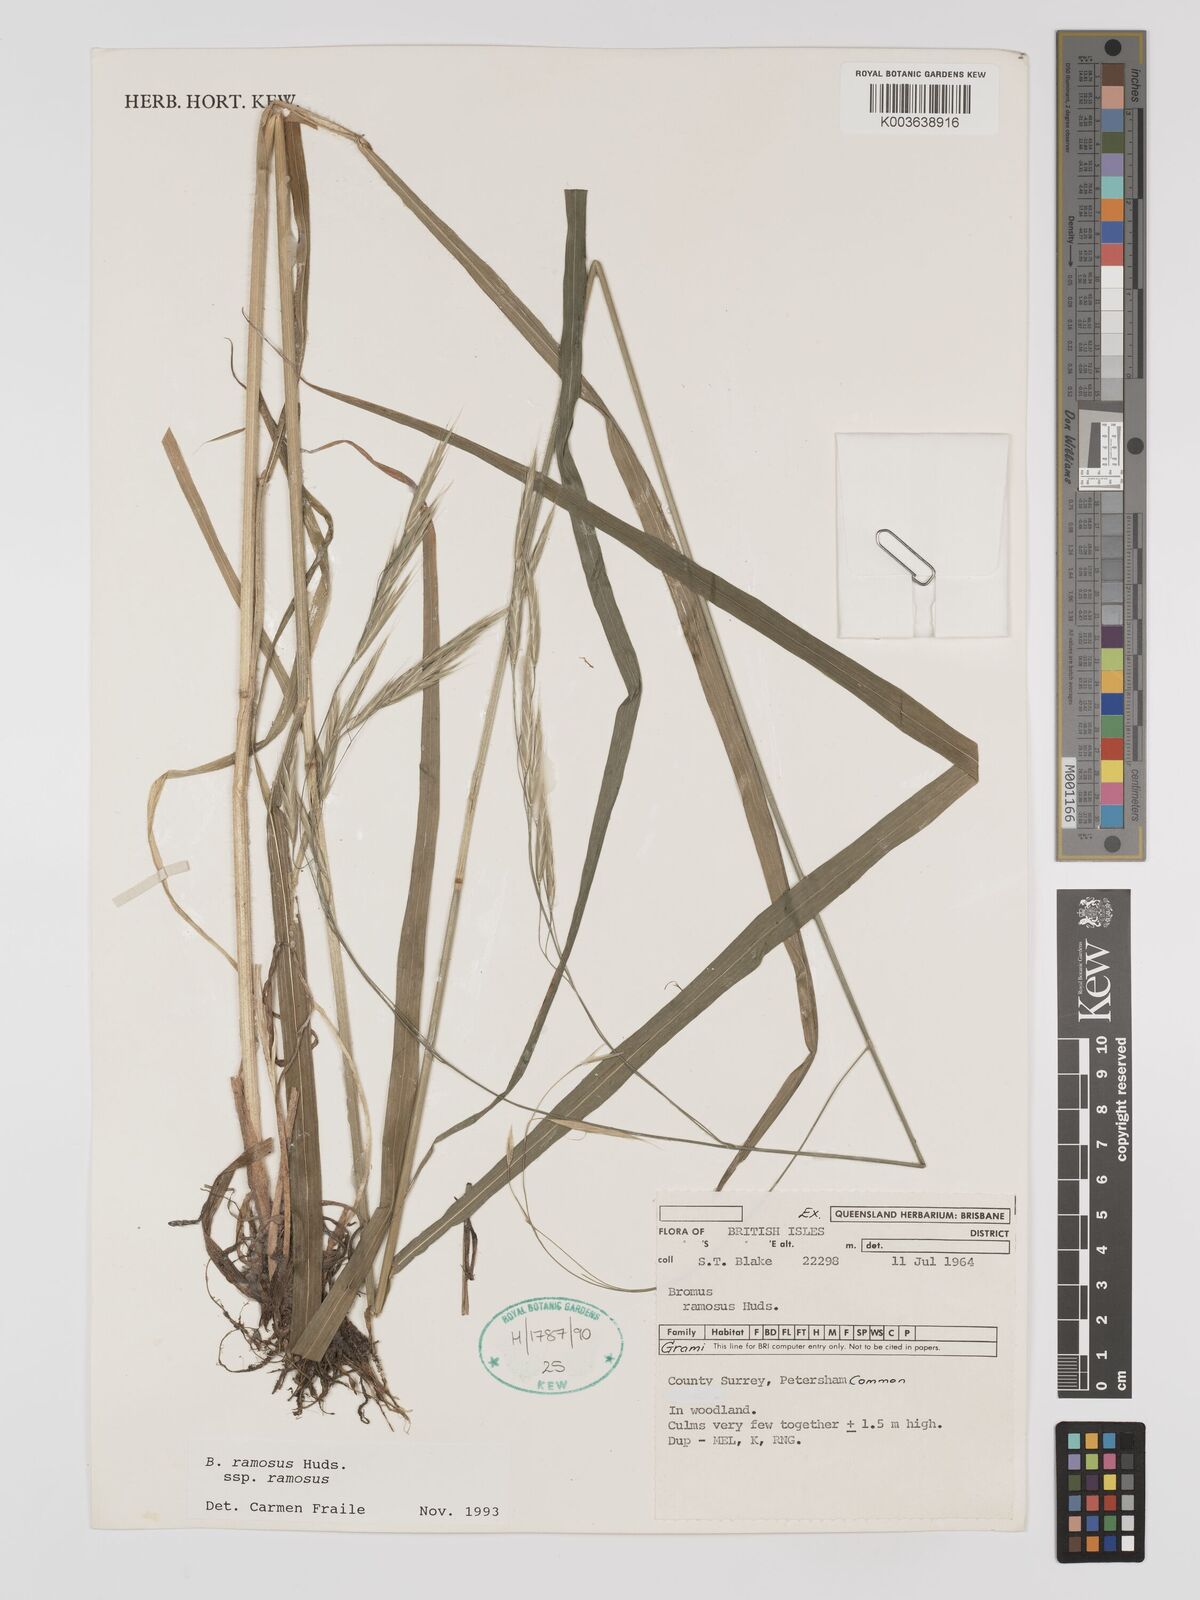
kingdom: Plantae
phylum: Tracheophyta
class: Liliopsida
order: Poales
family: Poaceae
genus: Bromus
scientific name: Bromus ramosus
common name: Hairy brome
